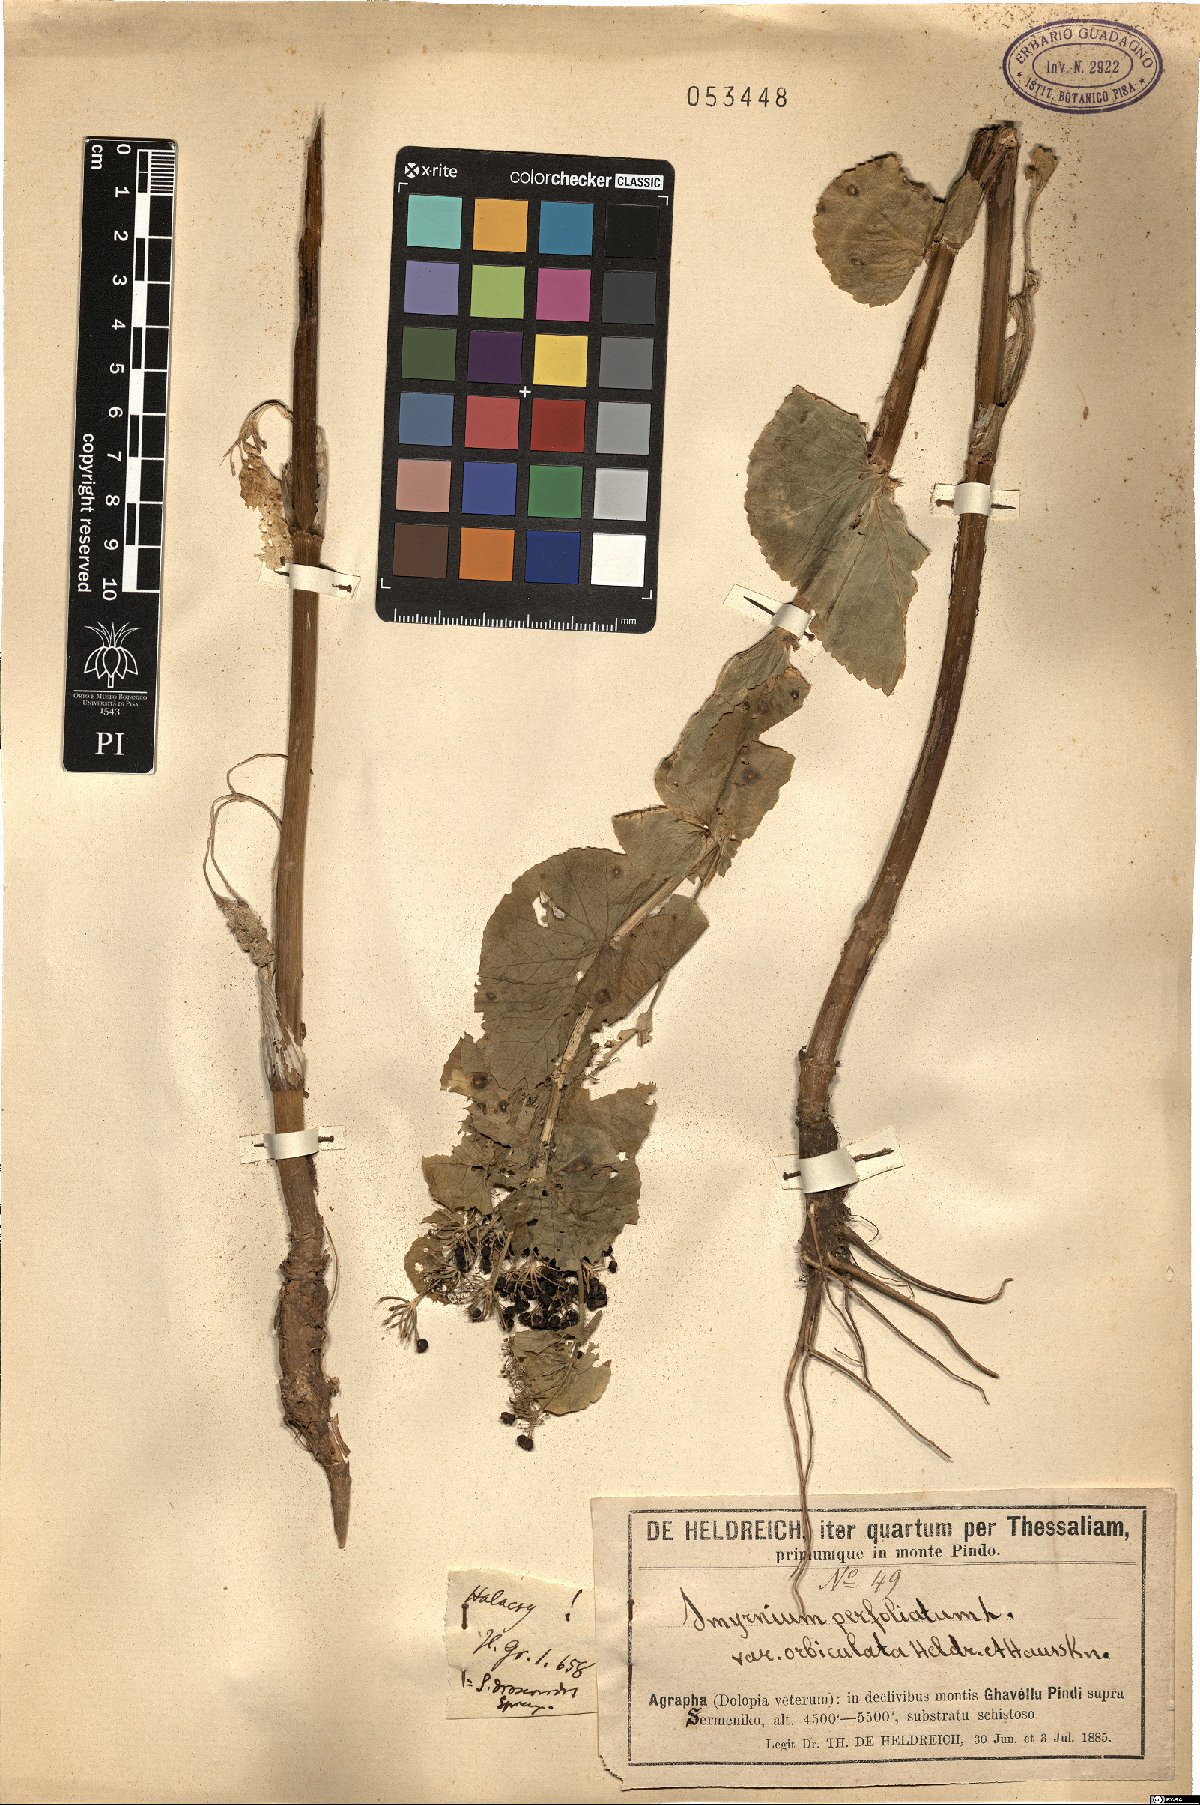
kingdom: Plantae
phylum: Tracheophyta
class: Magnoliopsida
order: Apiales
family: Apiaceae
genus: Smyrnium
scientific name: Smyrnium perfoliatum
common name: Perfoliate alexanders
